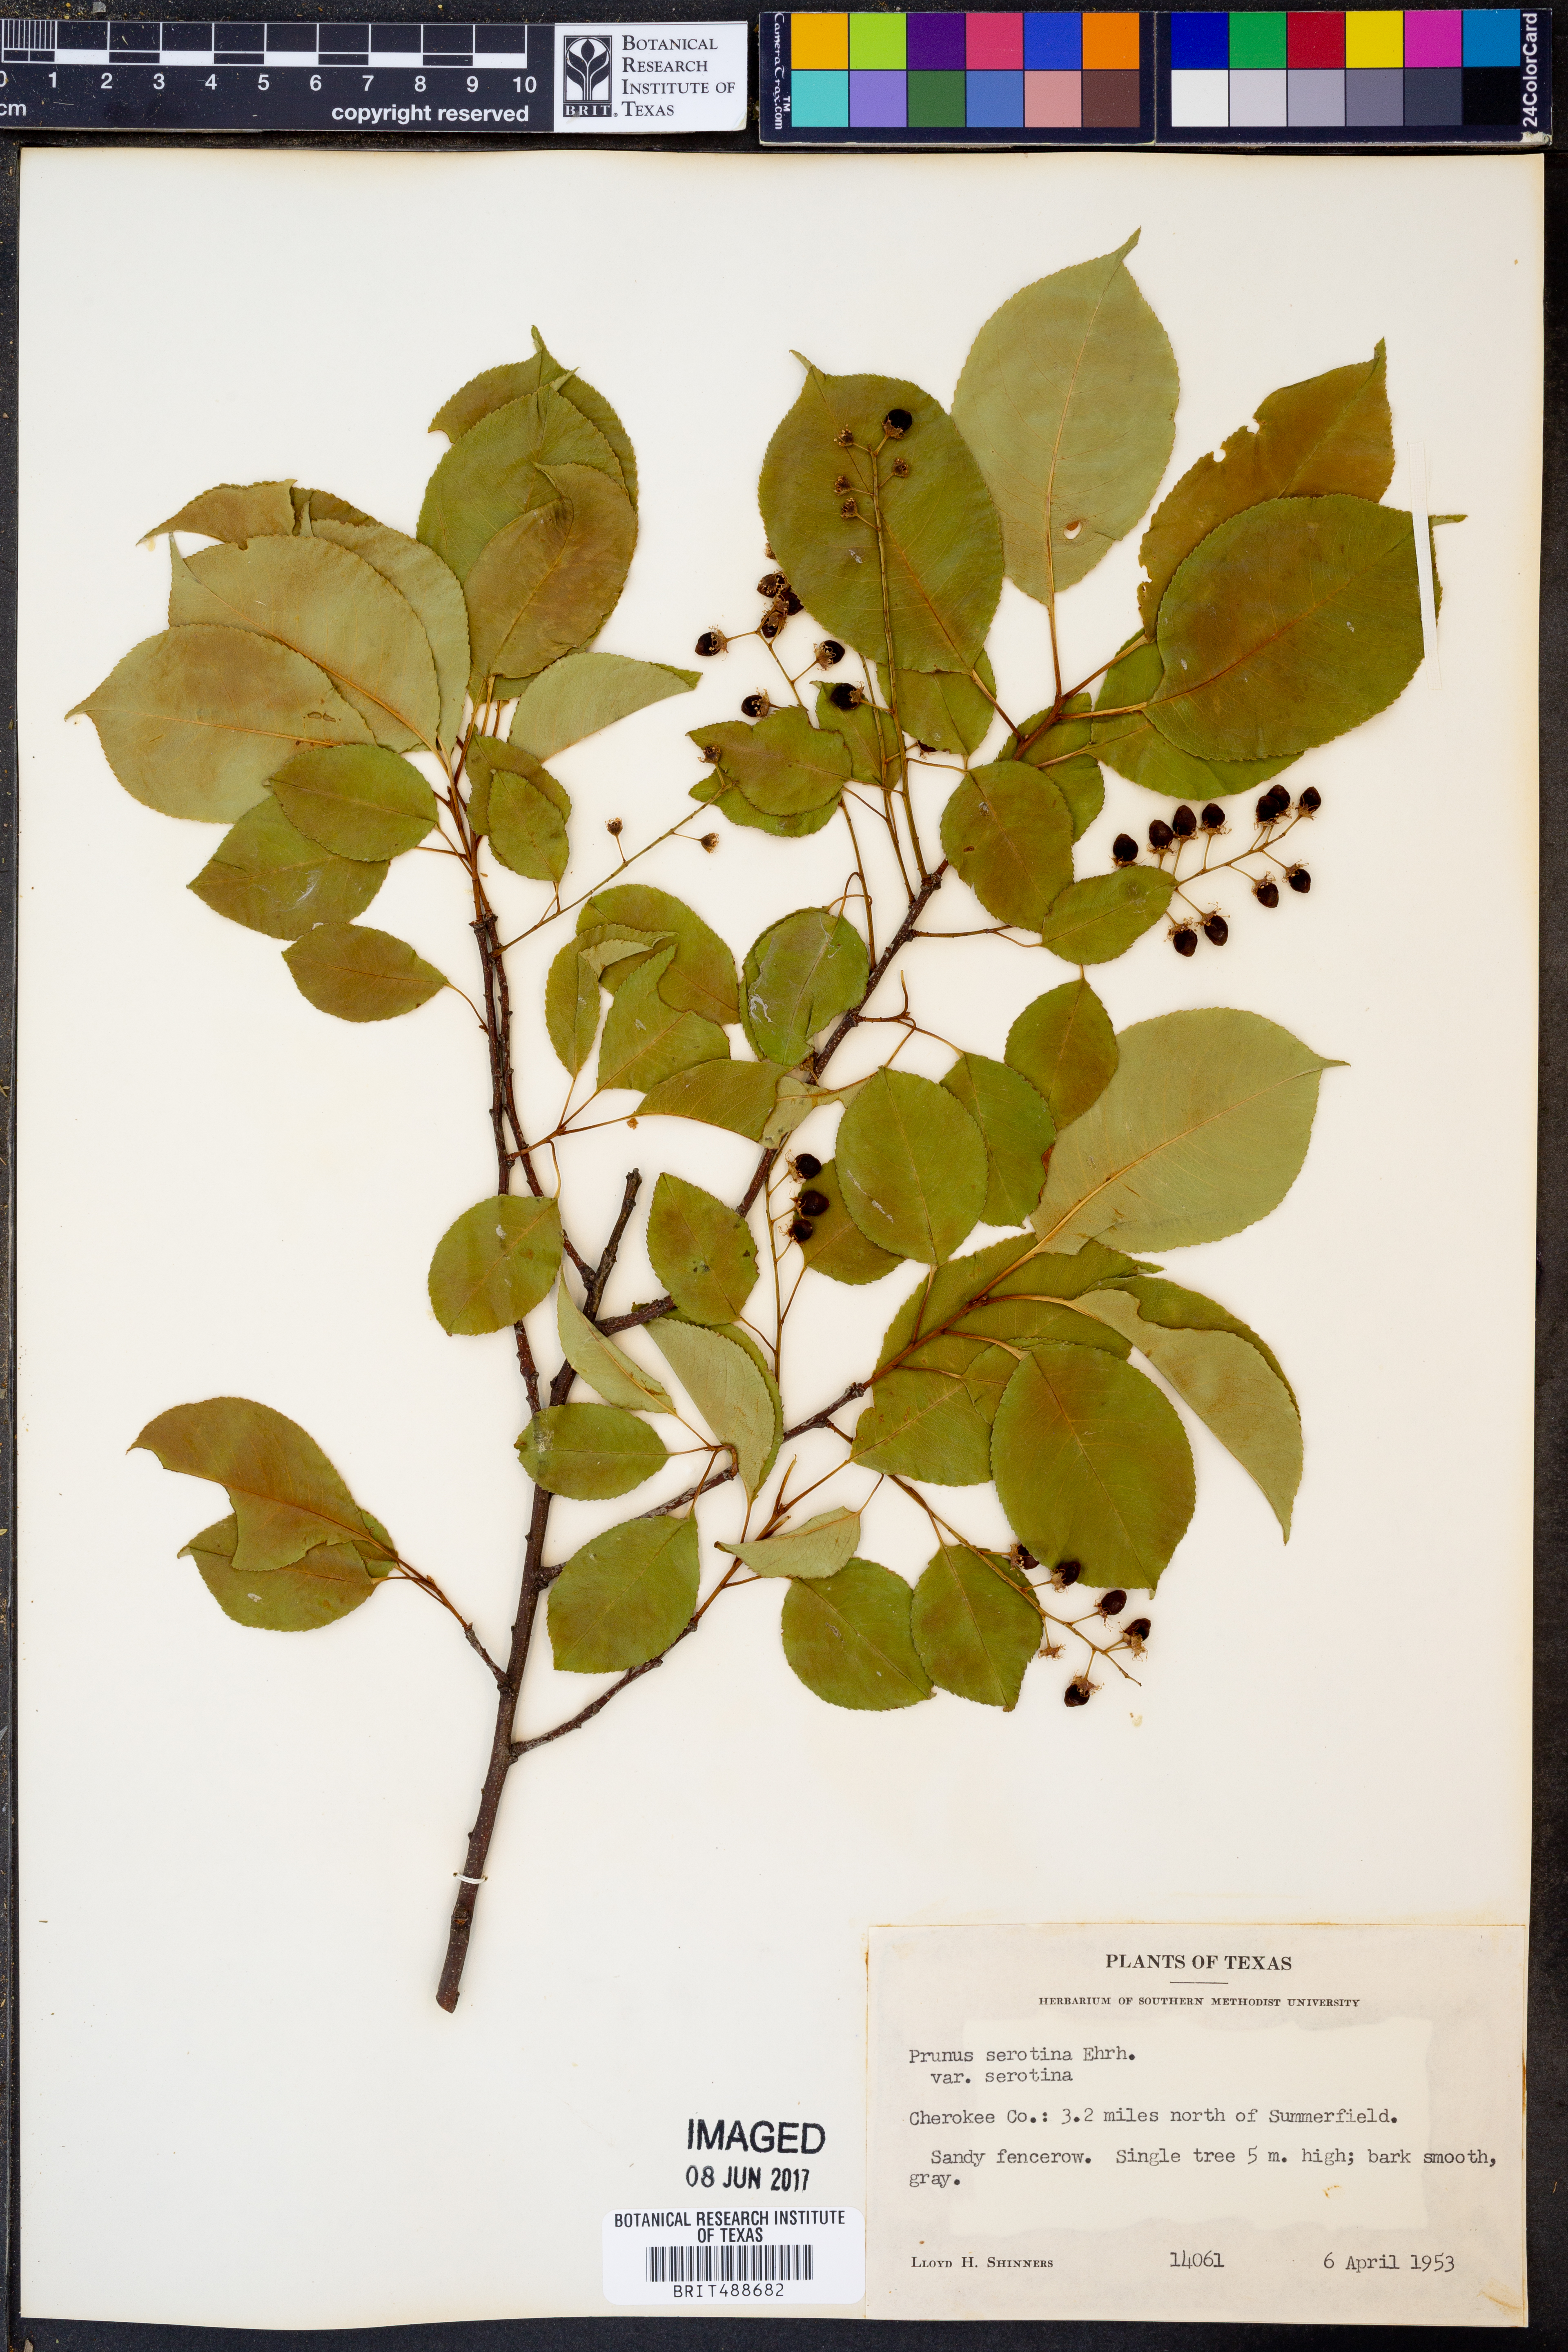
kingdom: Plantae
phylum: Tracheophyta
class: Magnoliopsida
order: Rosales
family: Rosaceae
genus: Prunus
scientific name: Prunus serotina
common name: Black cherry
